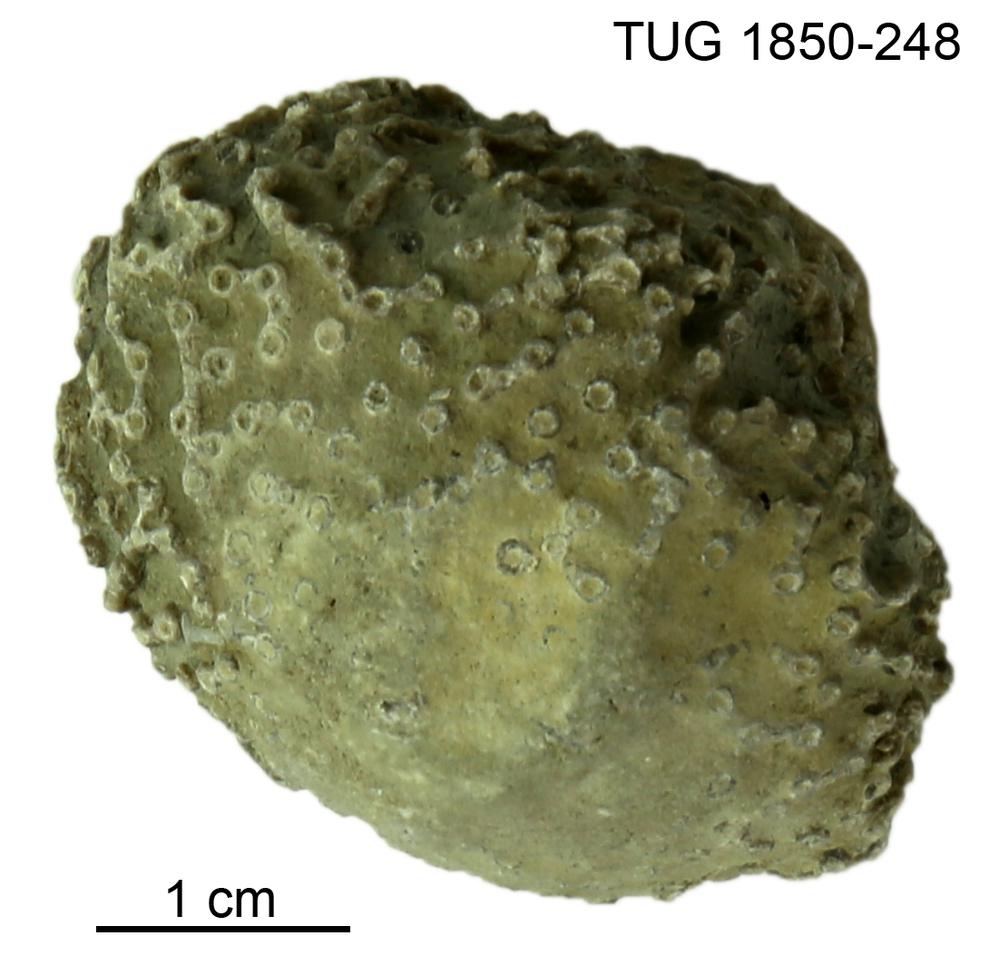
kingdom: Animalia
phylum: Cnidaria
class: Anthozoa
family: Syringoporidae
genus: Syringopora
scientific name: Syringopora
